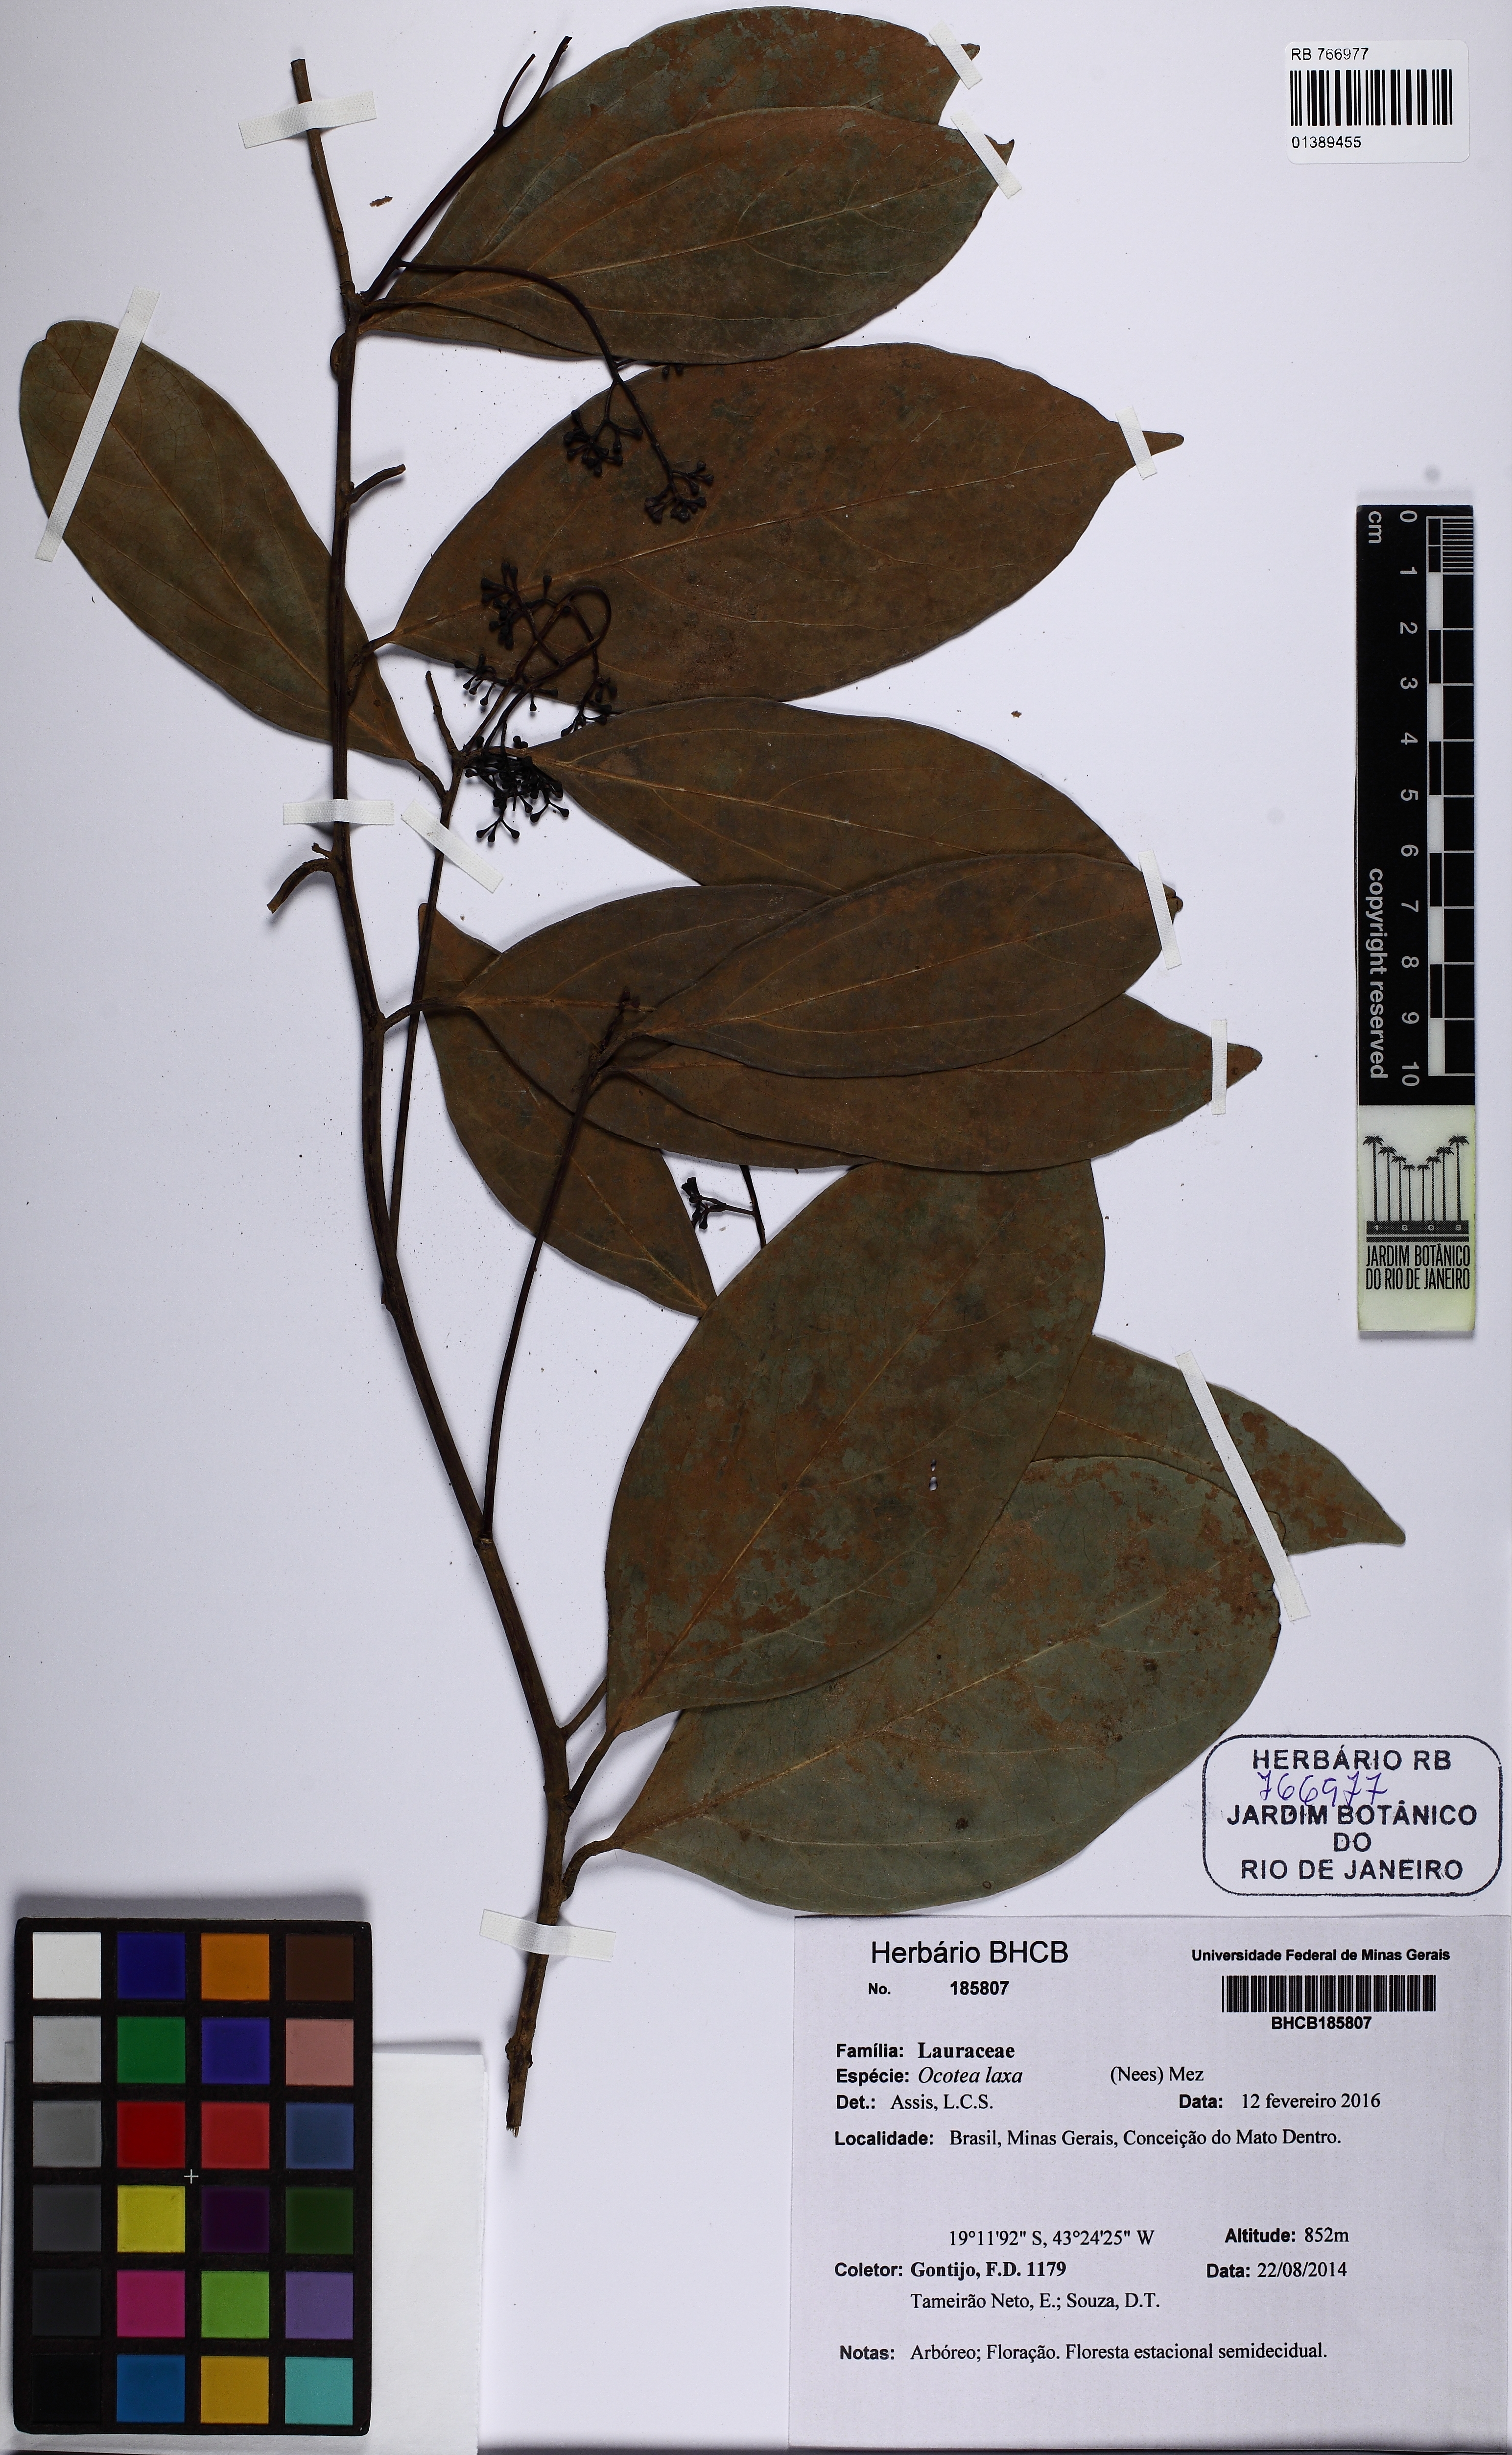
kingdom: Plantae
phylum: Tracheophyta
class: Magnoliopsida
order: Laurales
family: Lauraceae
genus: Ocotea
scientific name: Ocotea laxa
